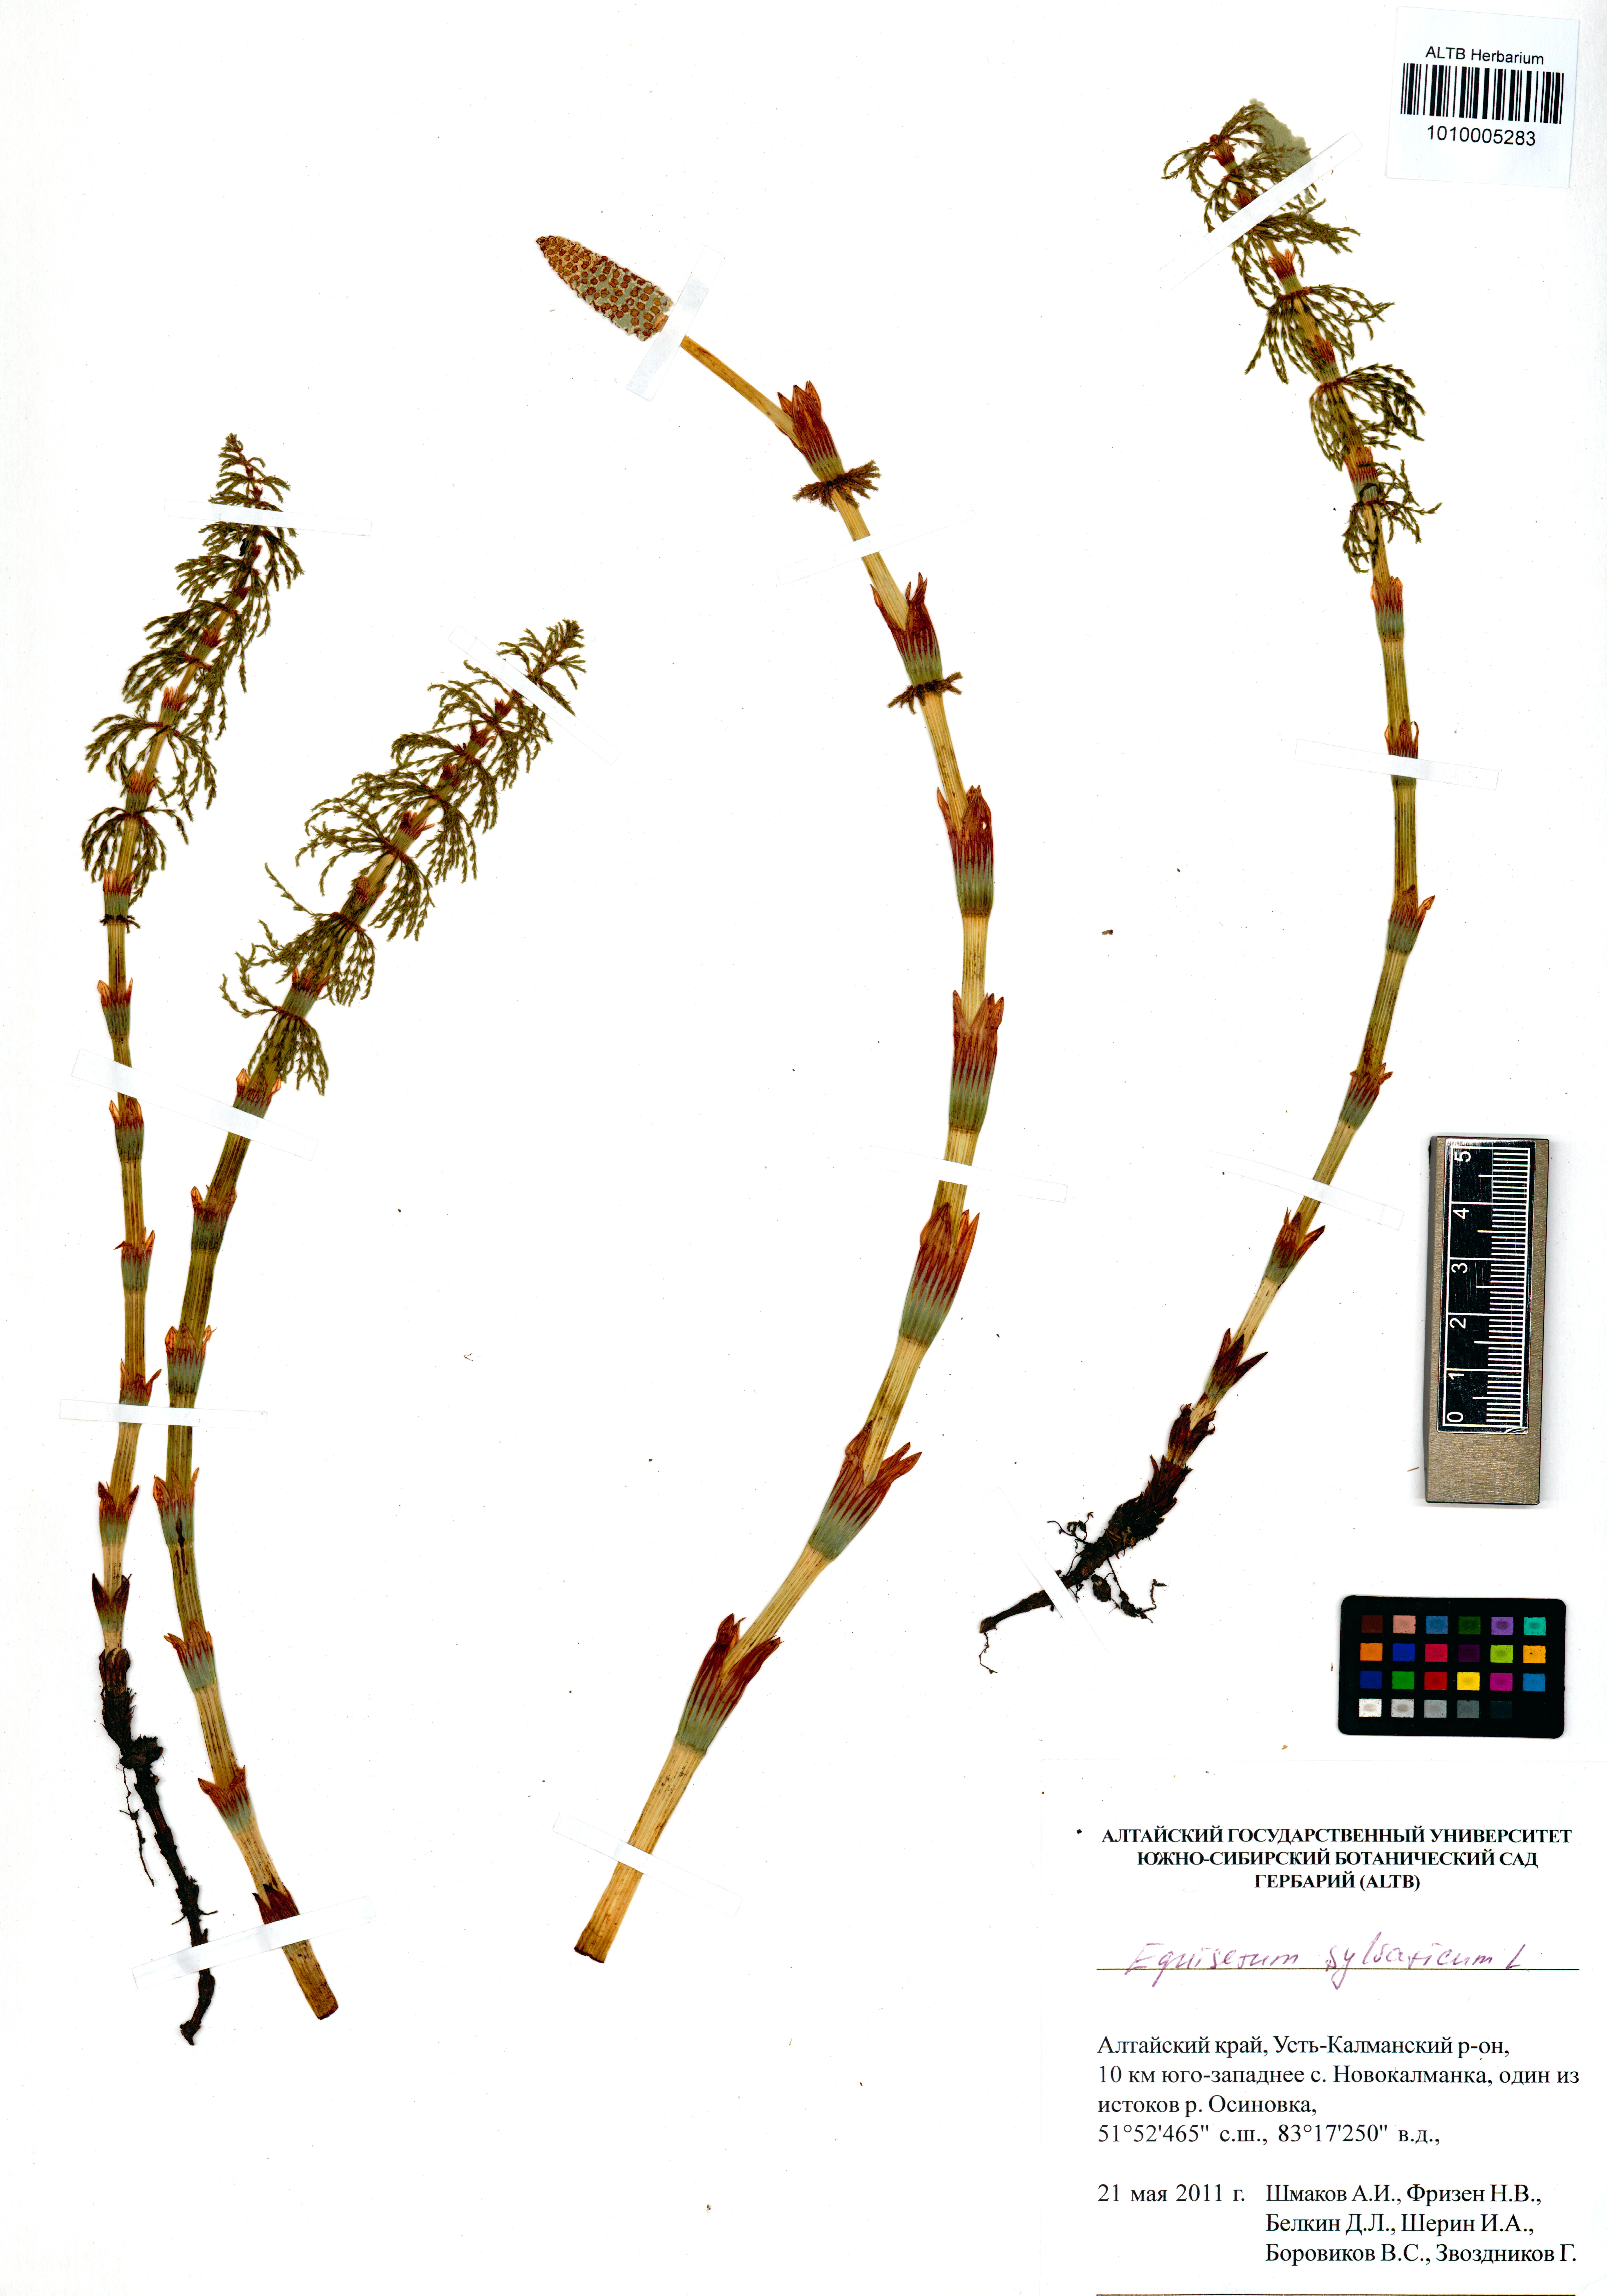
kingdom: Plantae
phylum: Tracheophyta
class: Polypodiopsida
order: Equisetales
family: Equisetaceae
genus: Equisetum
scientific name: Equisetum sylvaticum
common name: Wood horsetail
